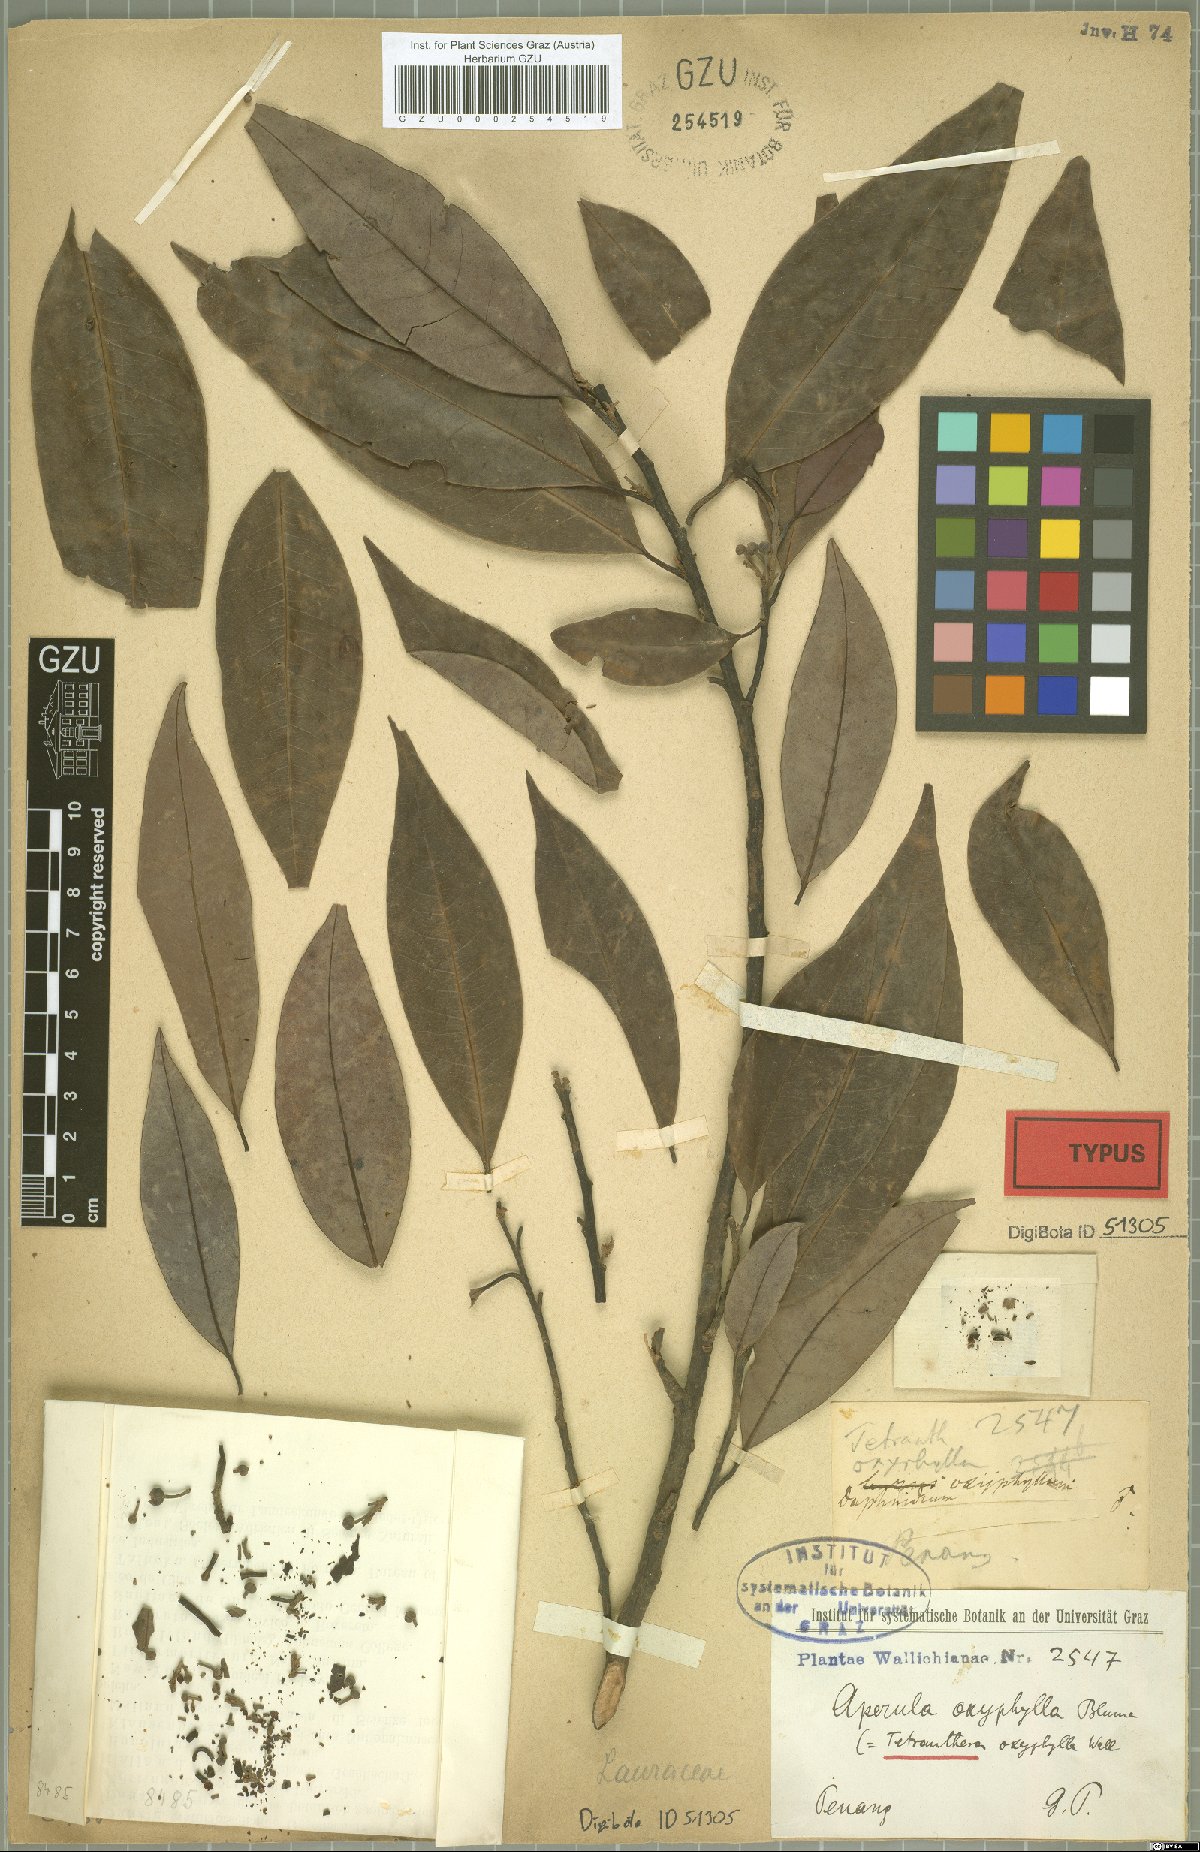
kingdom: Plantae
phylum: Tracheophyta
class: Magnoliopsida
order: Laurales
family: Lauraceae
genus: Litsea
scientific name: Litsea cubeba
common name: Mountain-pepper
